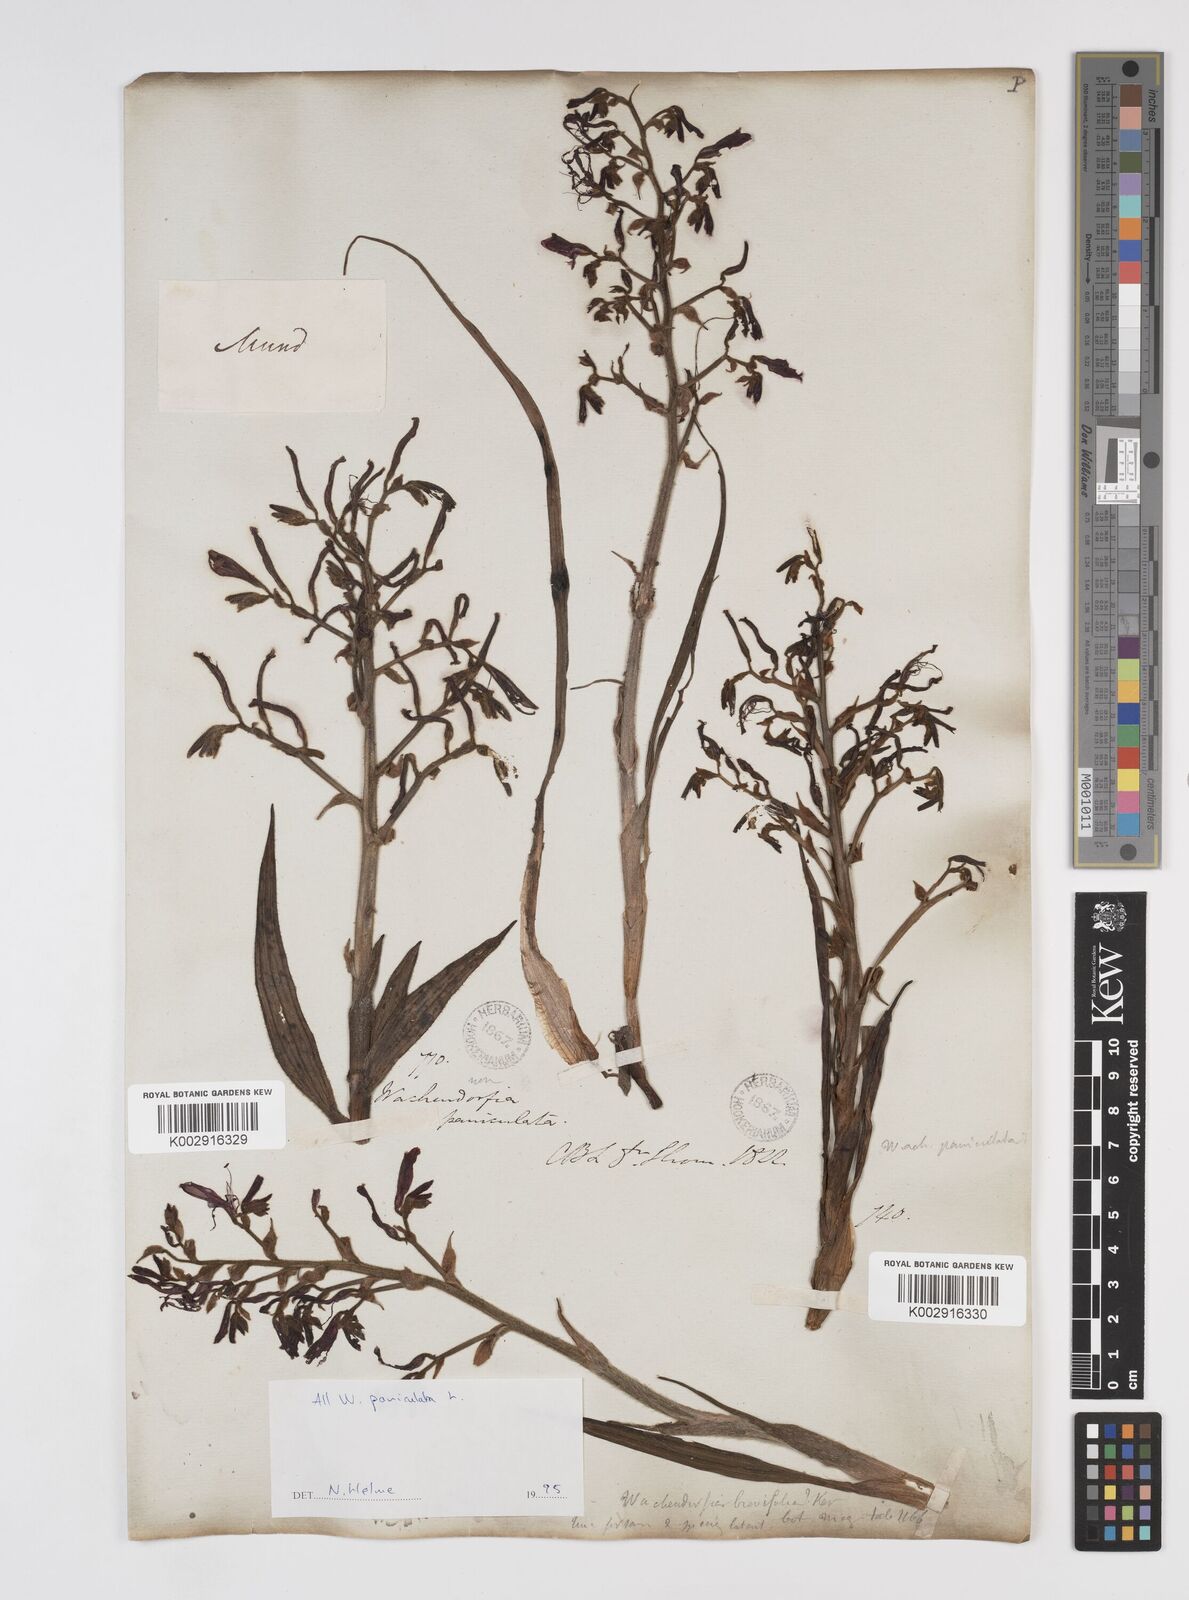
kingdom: Plantae
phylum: Tracheophyta
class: Liliopsida
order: Commelinales
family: Haemodoraceae
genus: Wachendorfia
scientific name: Wachendorfia paniculata
